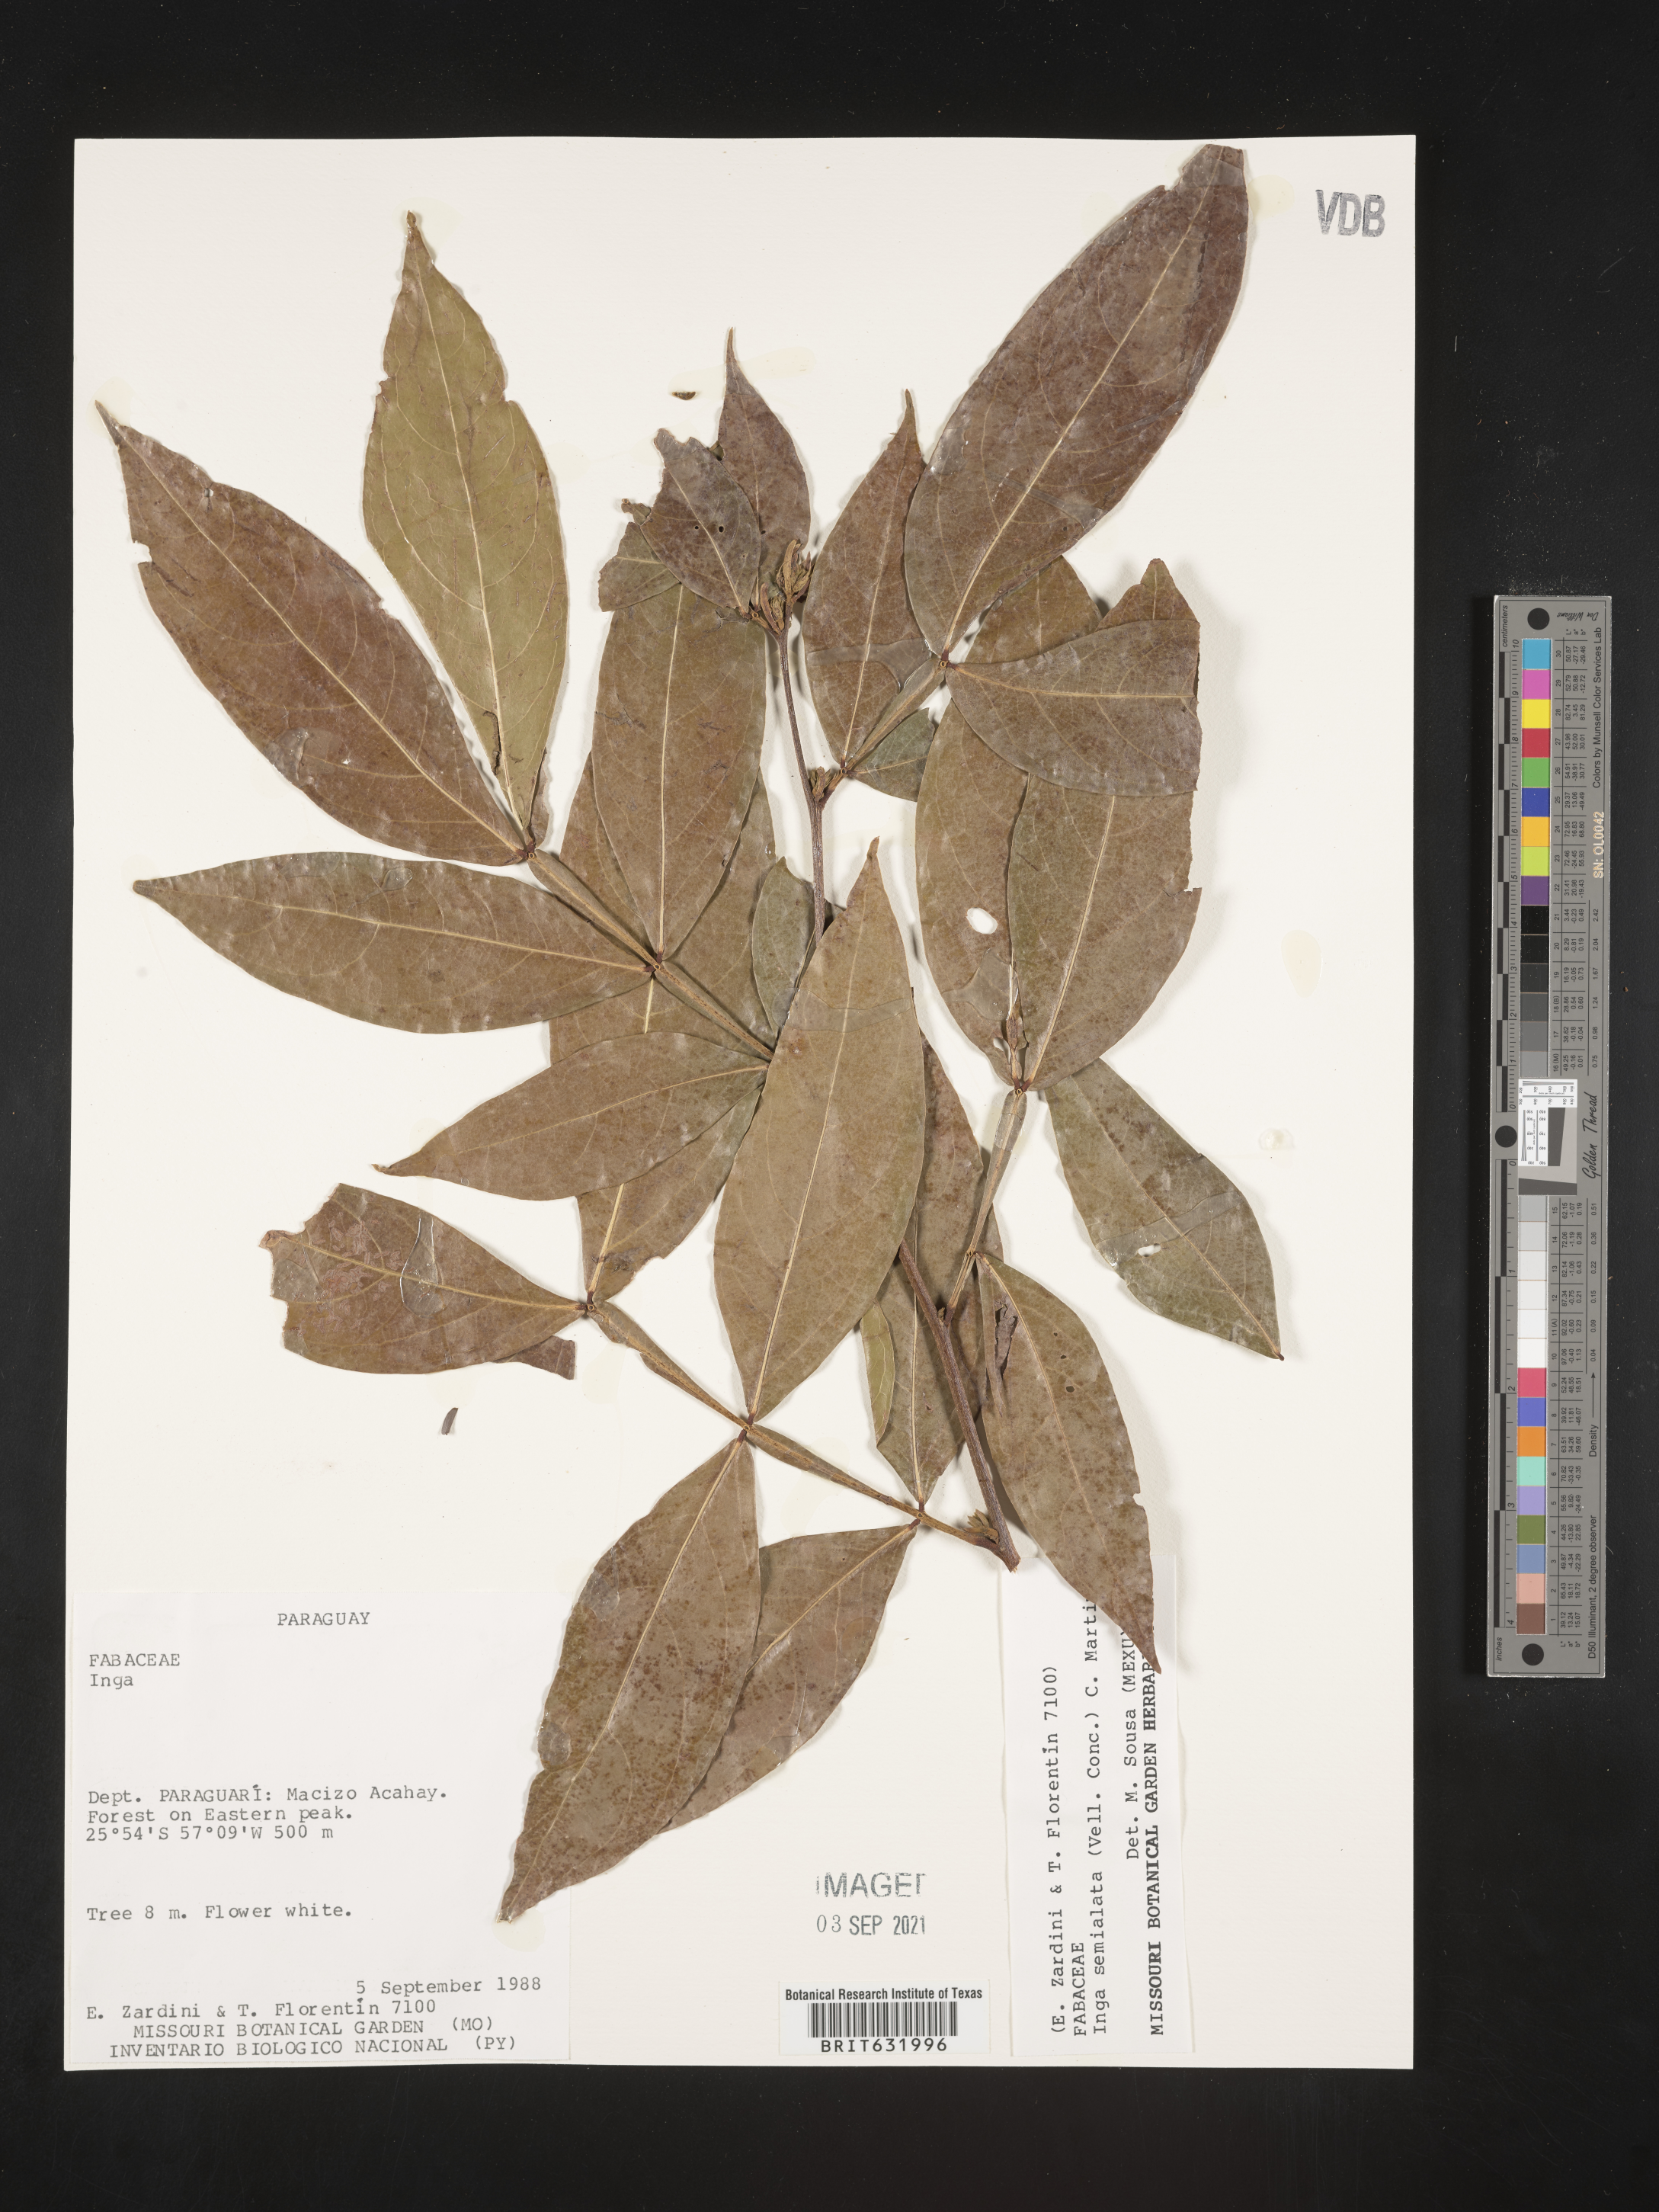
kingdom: Plantae
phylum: Tracheophyta
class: Magnoliopsida
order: Fabales
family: Fabaceae
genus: Inga
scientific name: Inga
